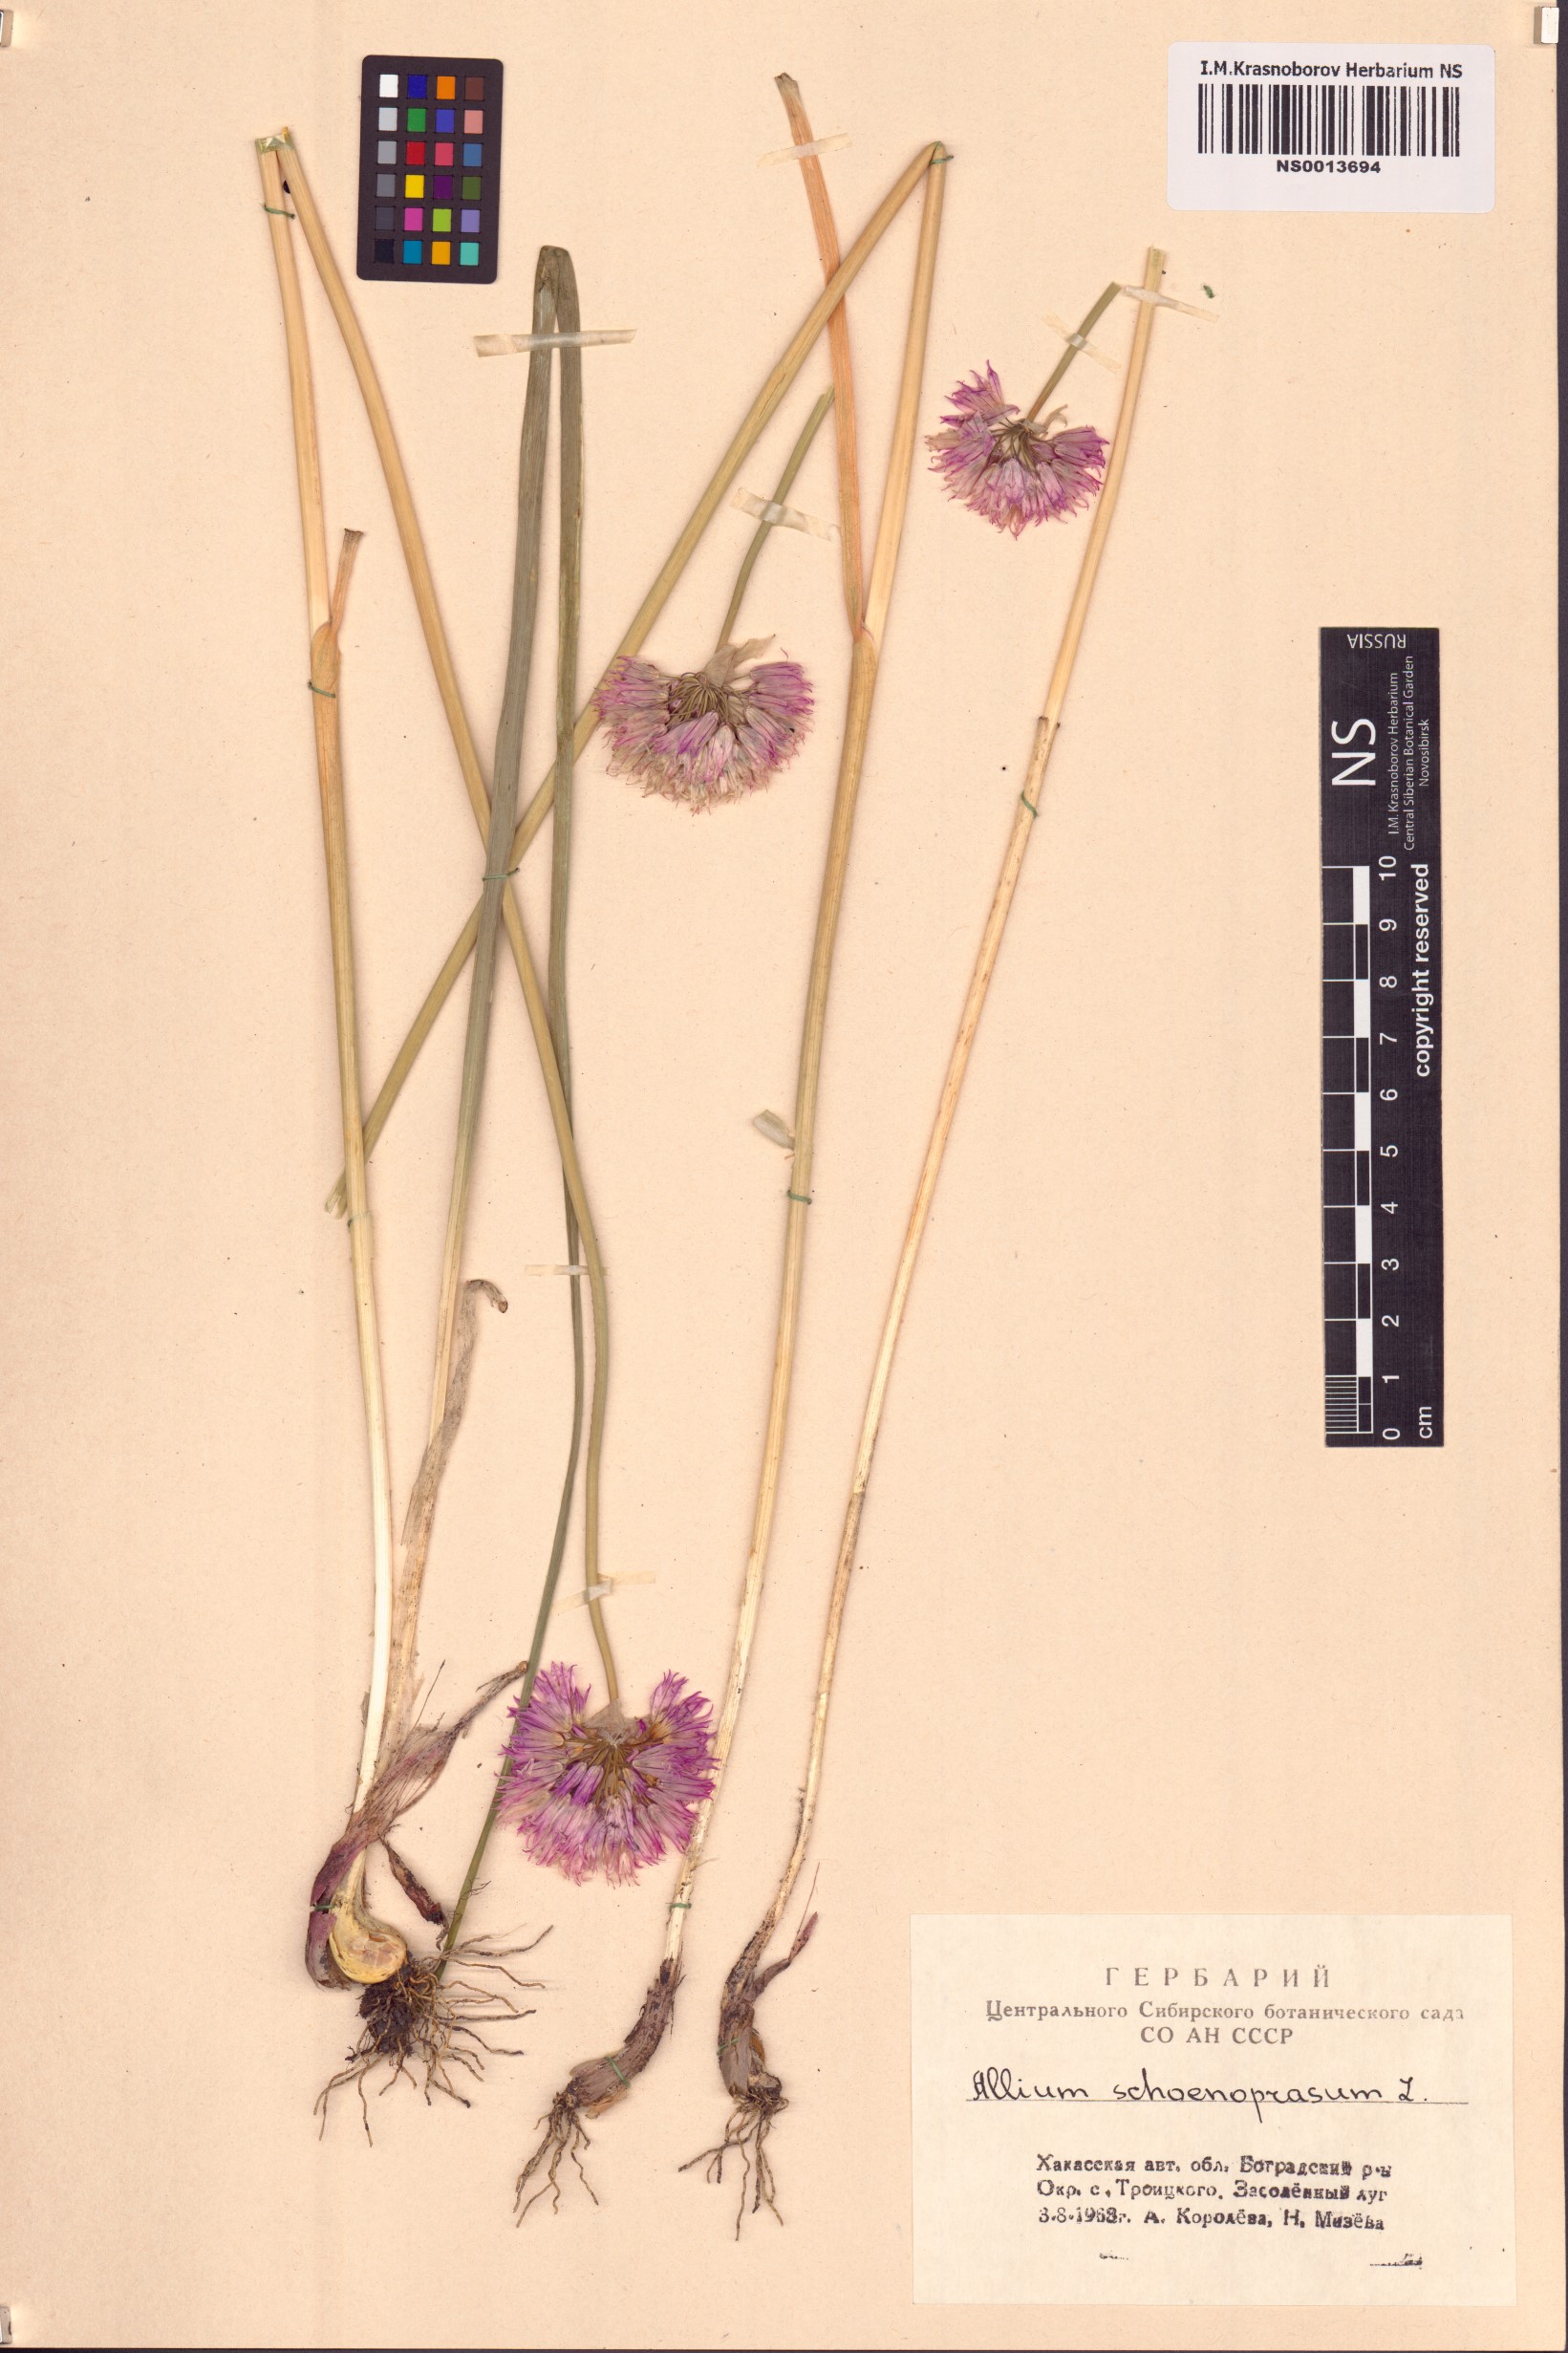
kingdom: Plantae
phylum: Tracheophyta
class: Liliopsida
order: Asparagales
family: Amaryllidaceae
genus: Allium
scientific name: Allium schoenoprasum
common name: Chives
